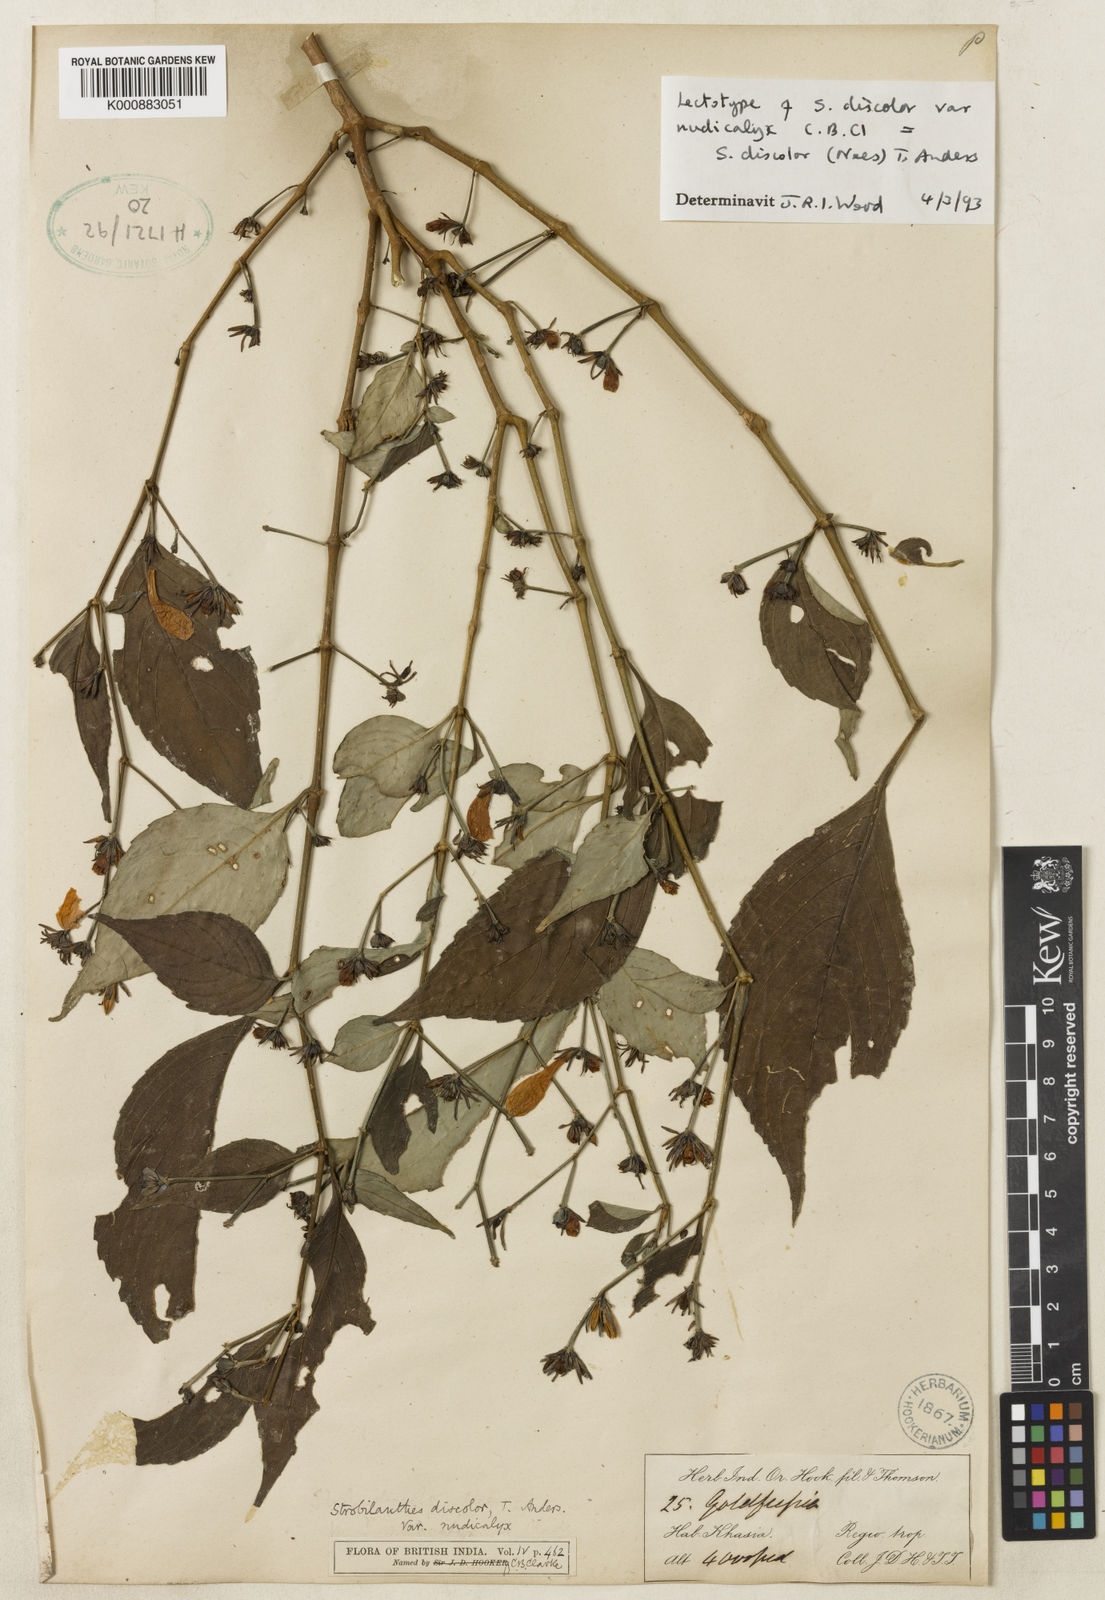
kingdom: Plantae
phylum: Tracheophyta
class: Magnoliopsida
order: Lamiales
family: Acanthaceae
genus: Strobilanthes
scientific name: Strobilanthes discolor
